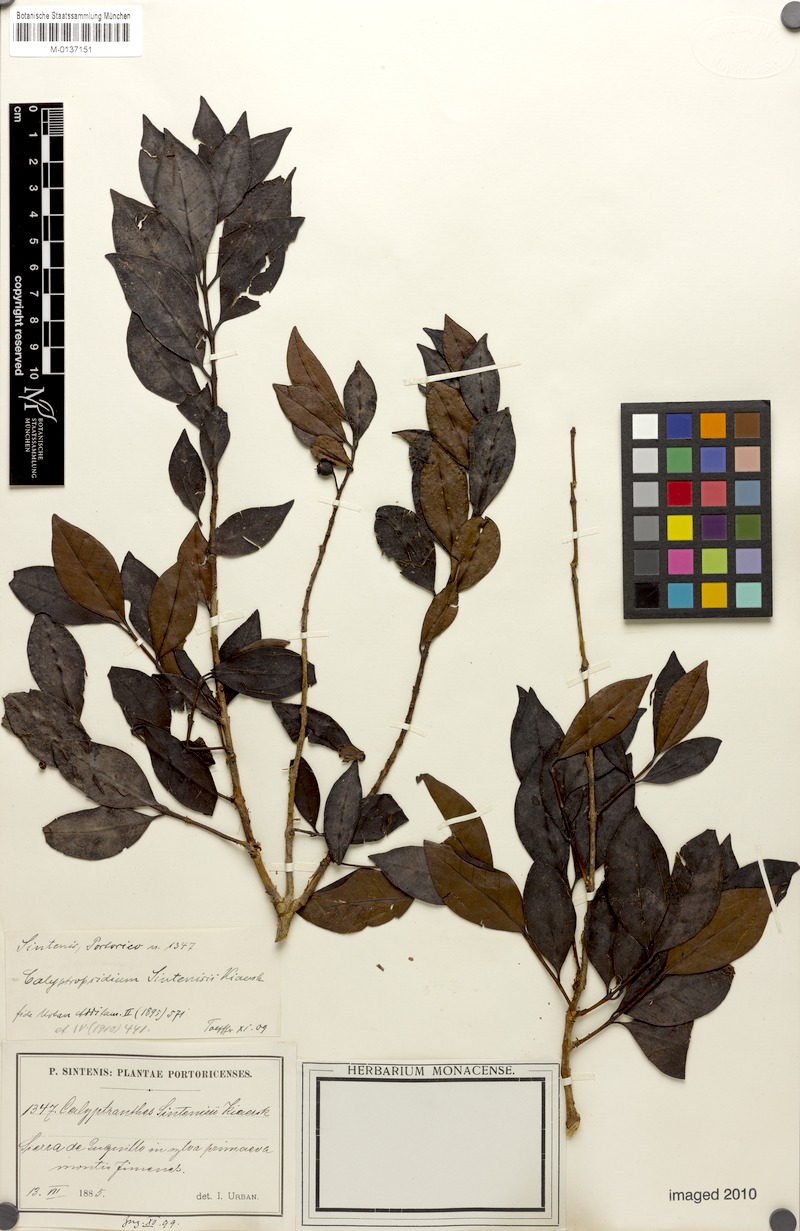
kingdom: Plantae
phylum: Tracheophyta
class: Magnoliopsida
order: Myrtales
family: Myrtaceae
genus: Myrcia
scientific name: Myrcia neosintenisii
